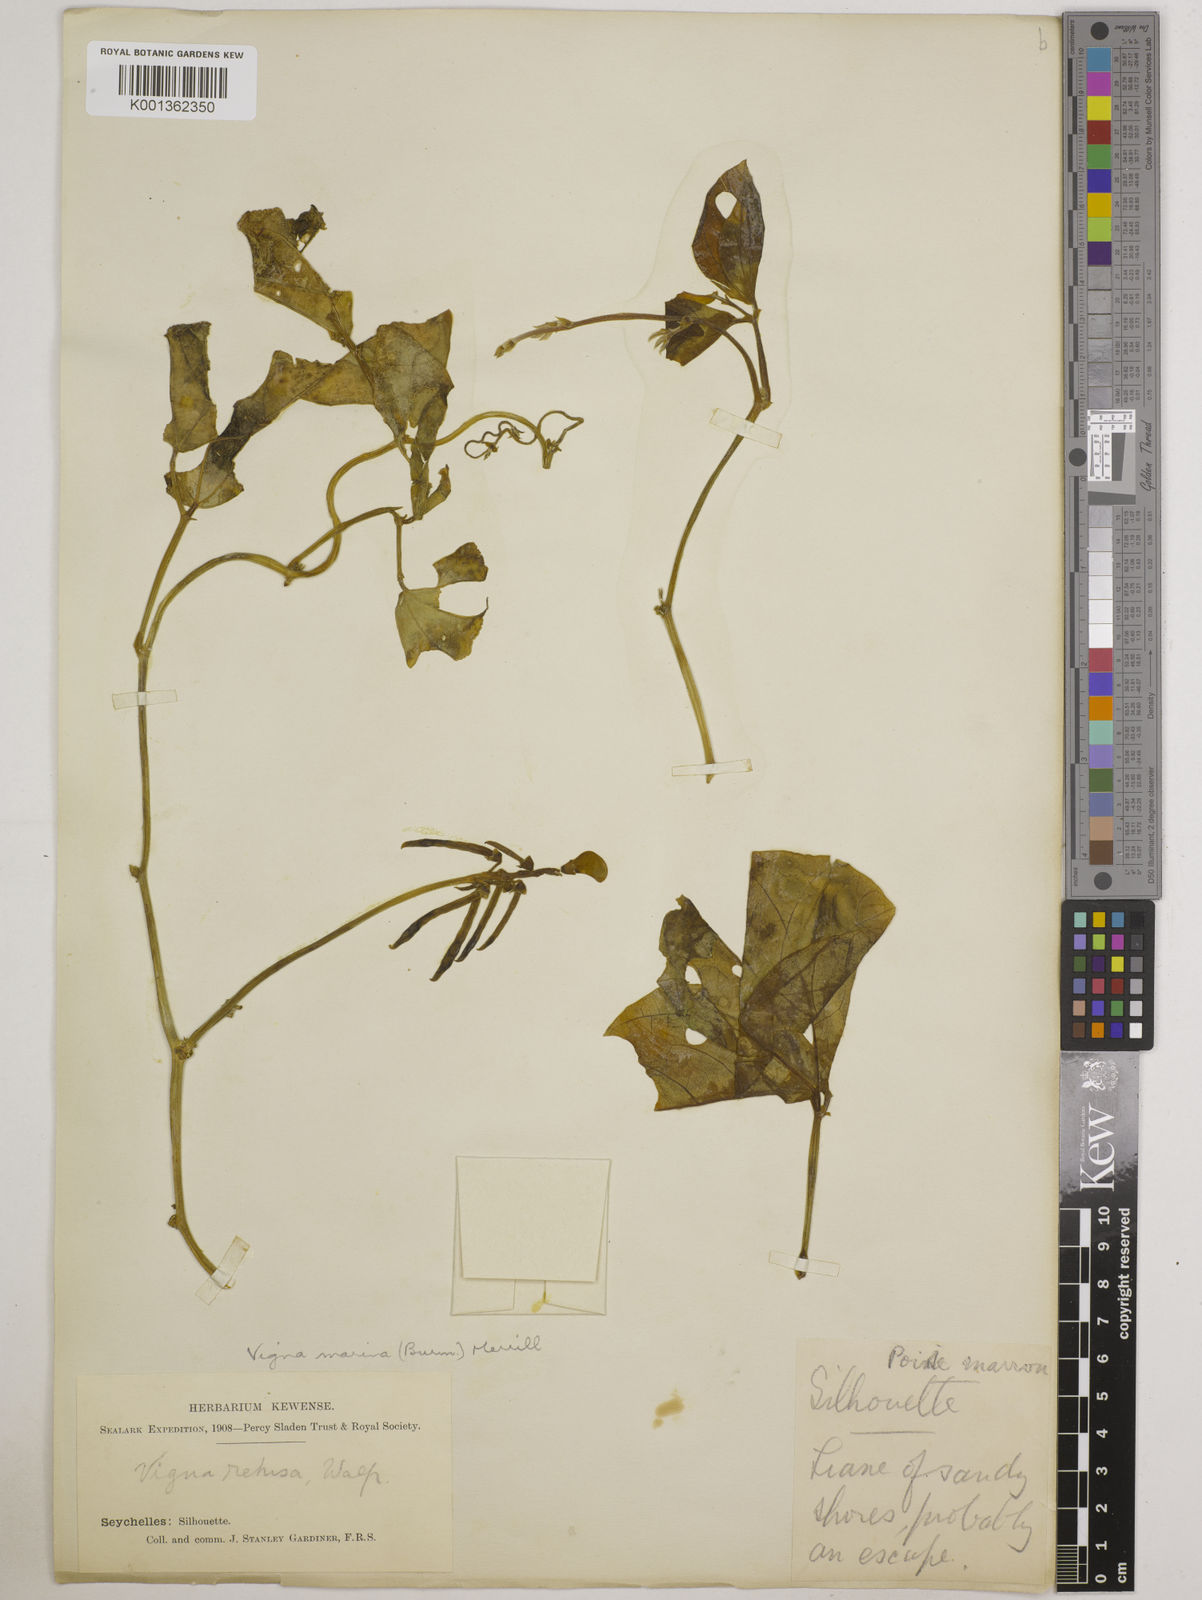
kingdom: Plantae
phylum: Tracheophyta
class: Magnoliopsida
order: Fabales
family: Fabaceae
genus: Vigna
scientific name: Vigna marina
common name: Dune-bean
